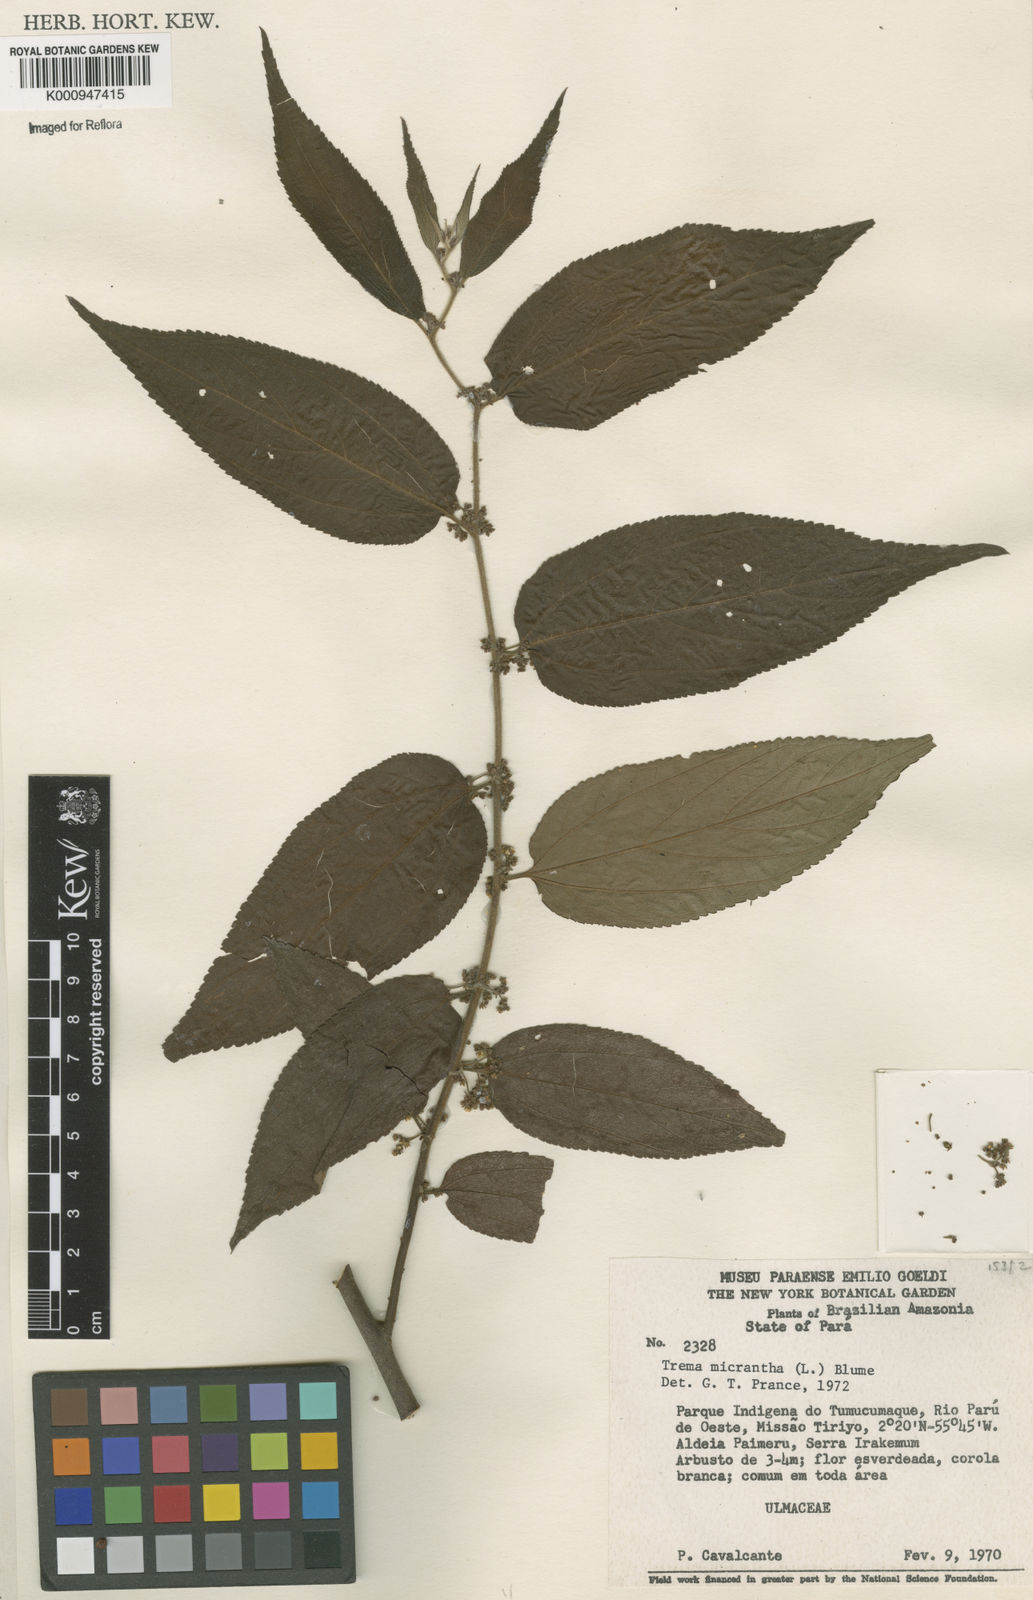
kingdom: Plantae
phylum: Tracheophyta
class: Magnoliopsida
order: Rosales
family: Cannabaceae
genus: Trema
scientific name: Trema micranthum
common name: Jamaican nettletree
